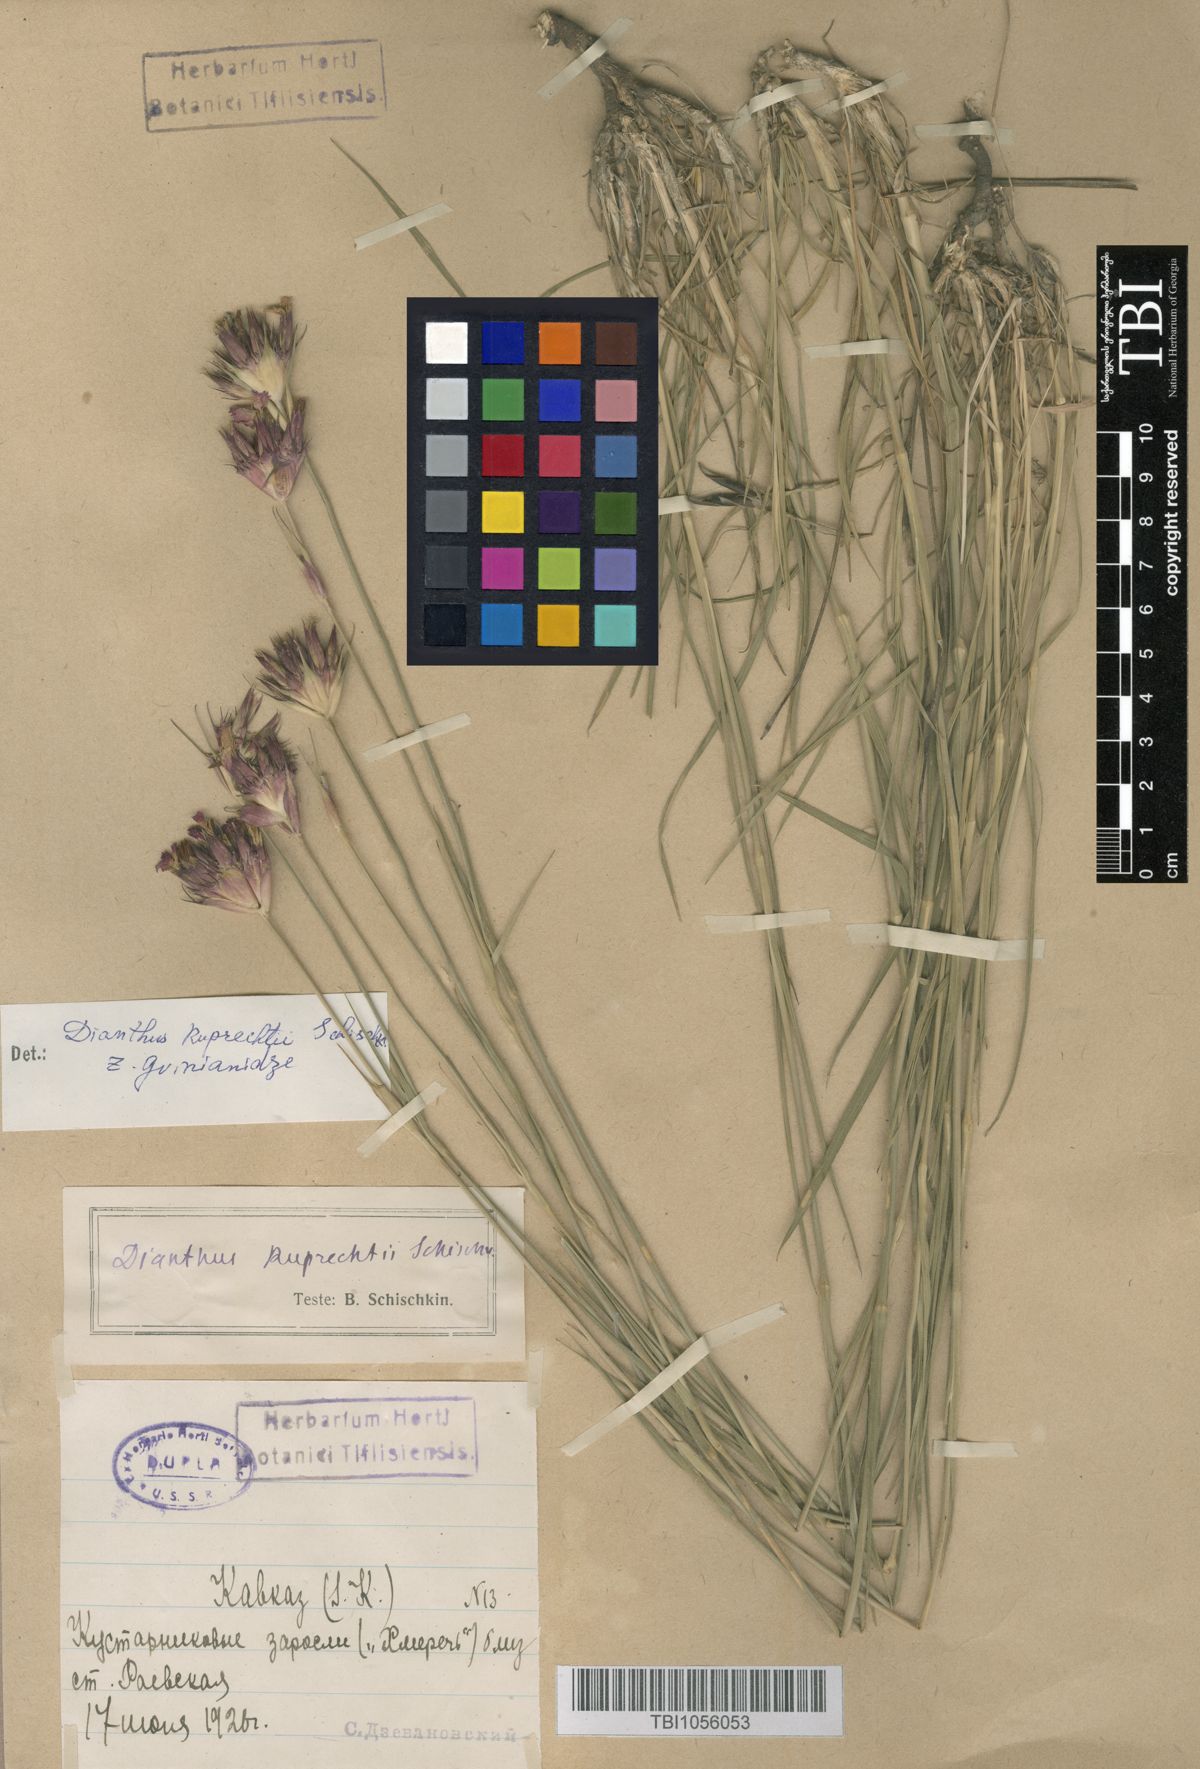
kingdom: Plantae
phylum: Tracheophyta
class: Magnoliopsida
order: Caryophyllales
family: Caryophyllaceae
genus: Dianthus
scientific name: Dianthus ruprechtii
